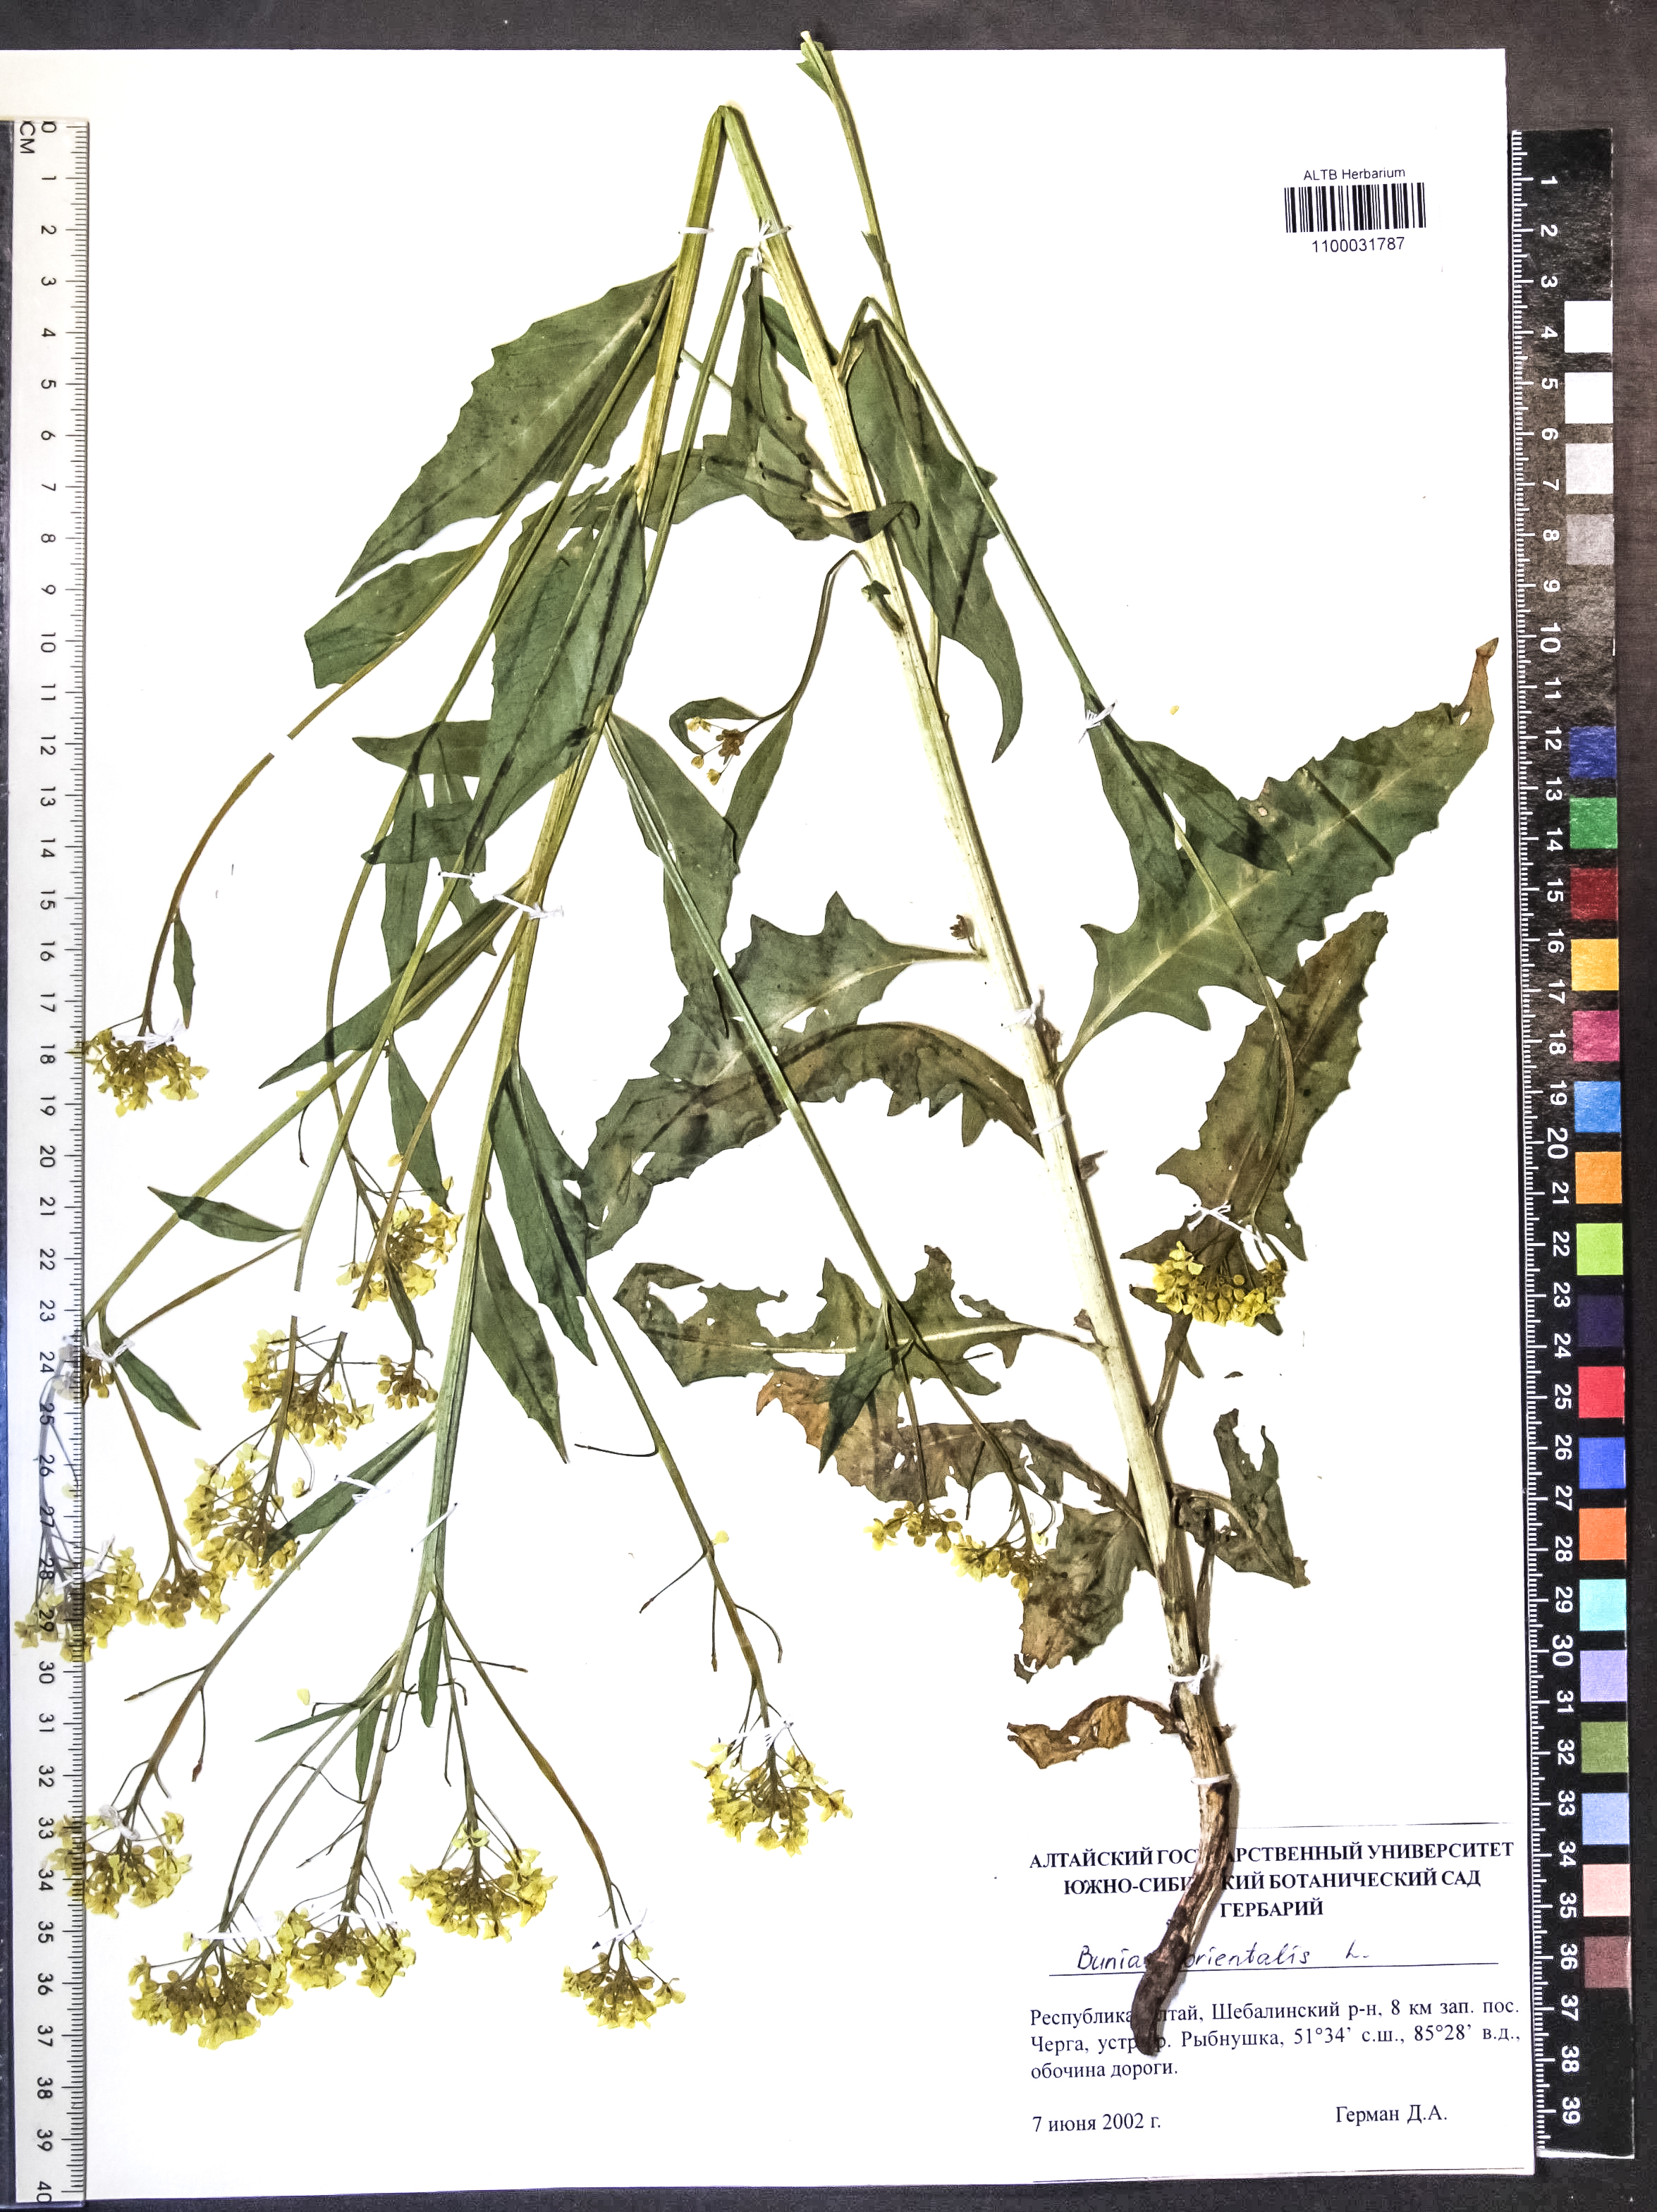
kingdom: Plantae
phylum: Tracheophyta
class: Magnoliopsida
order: Brassicales
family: Brassicaceae
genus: Bunias
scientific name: Bunias orientalis
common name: Warty-cabbage
